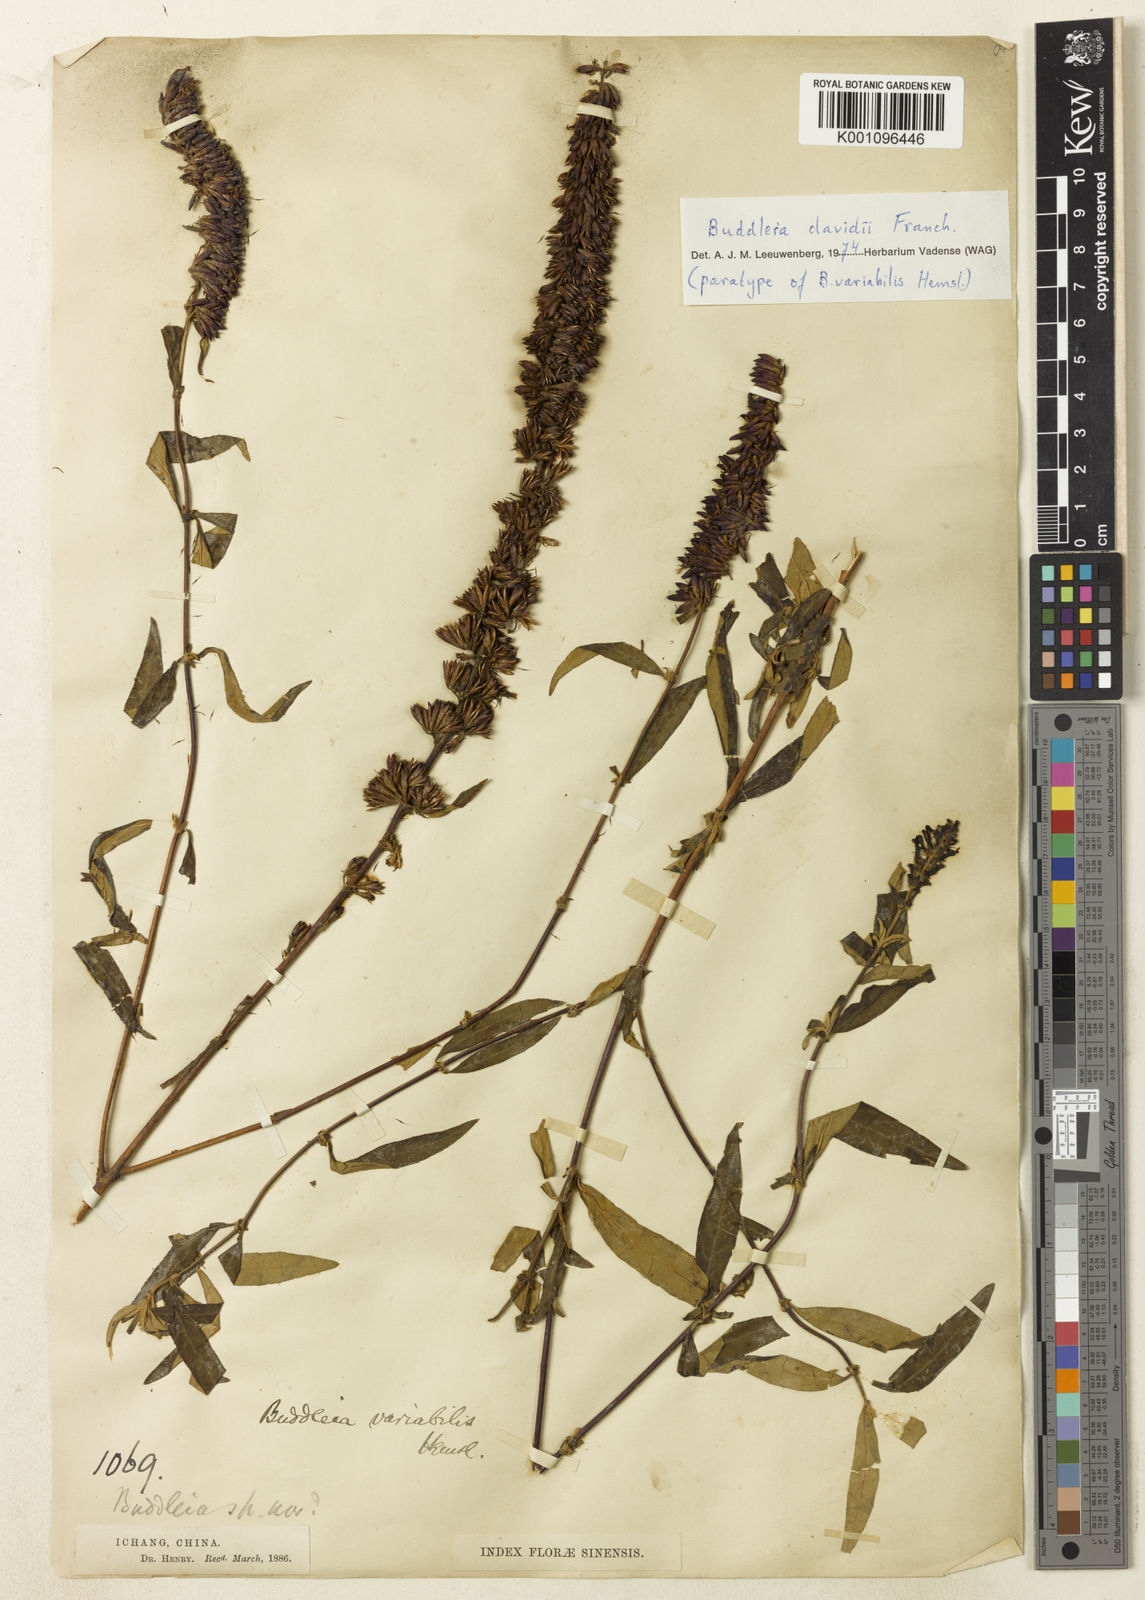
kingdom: Plantae
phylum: Tracheophyta
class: Magnoliopsida
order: Lamiales
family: Scrophulariaceae
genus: Buddleja
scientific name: Buddleja davidii
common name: Butterfly-bush
